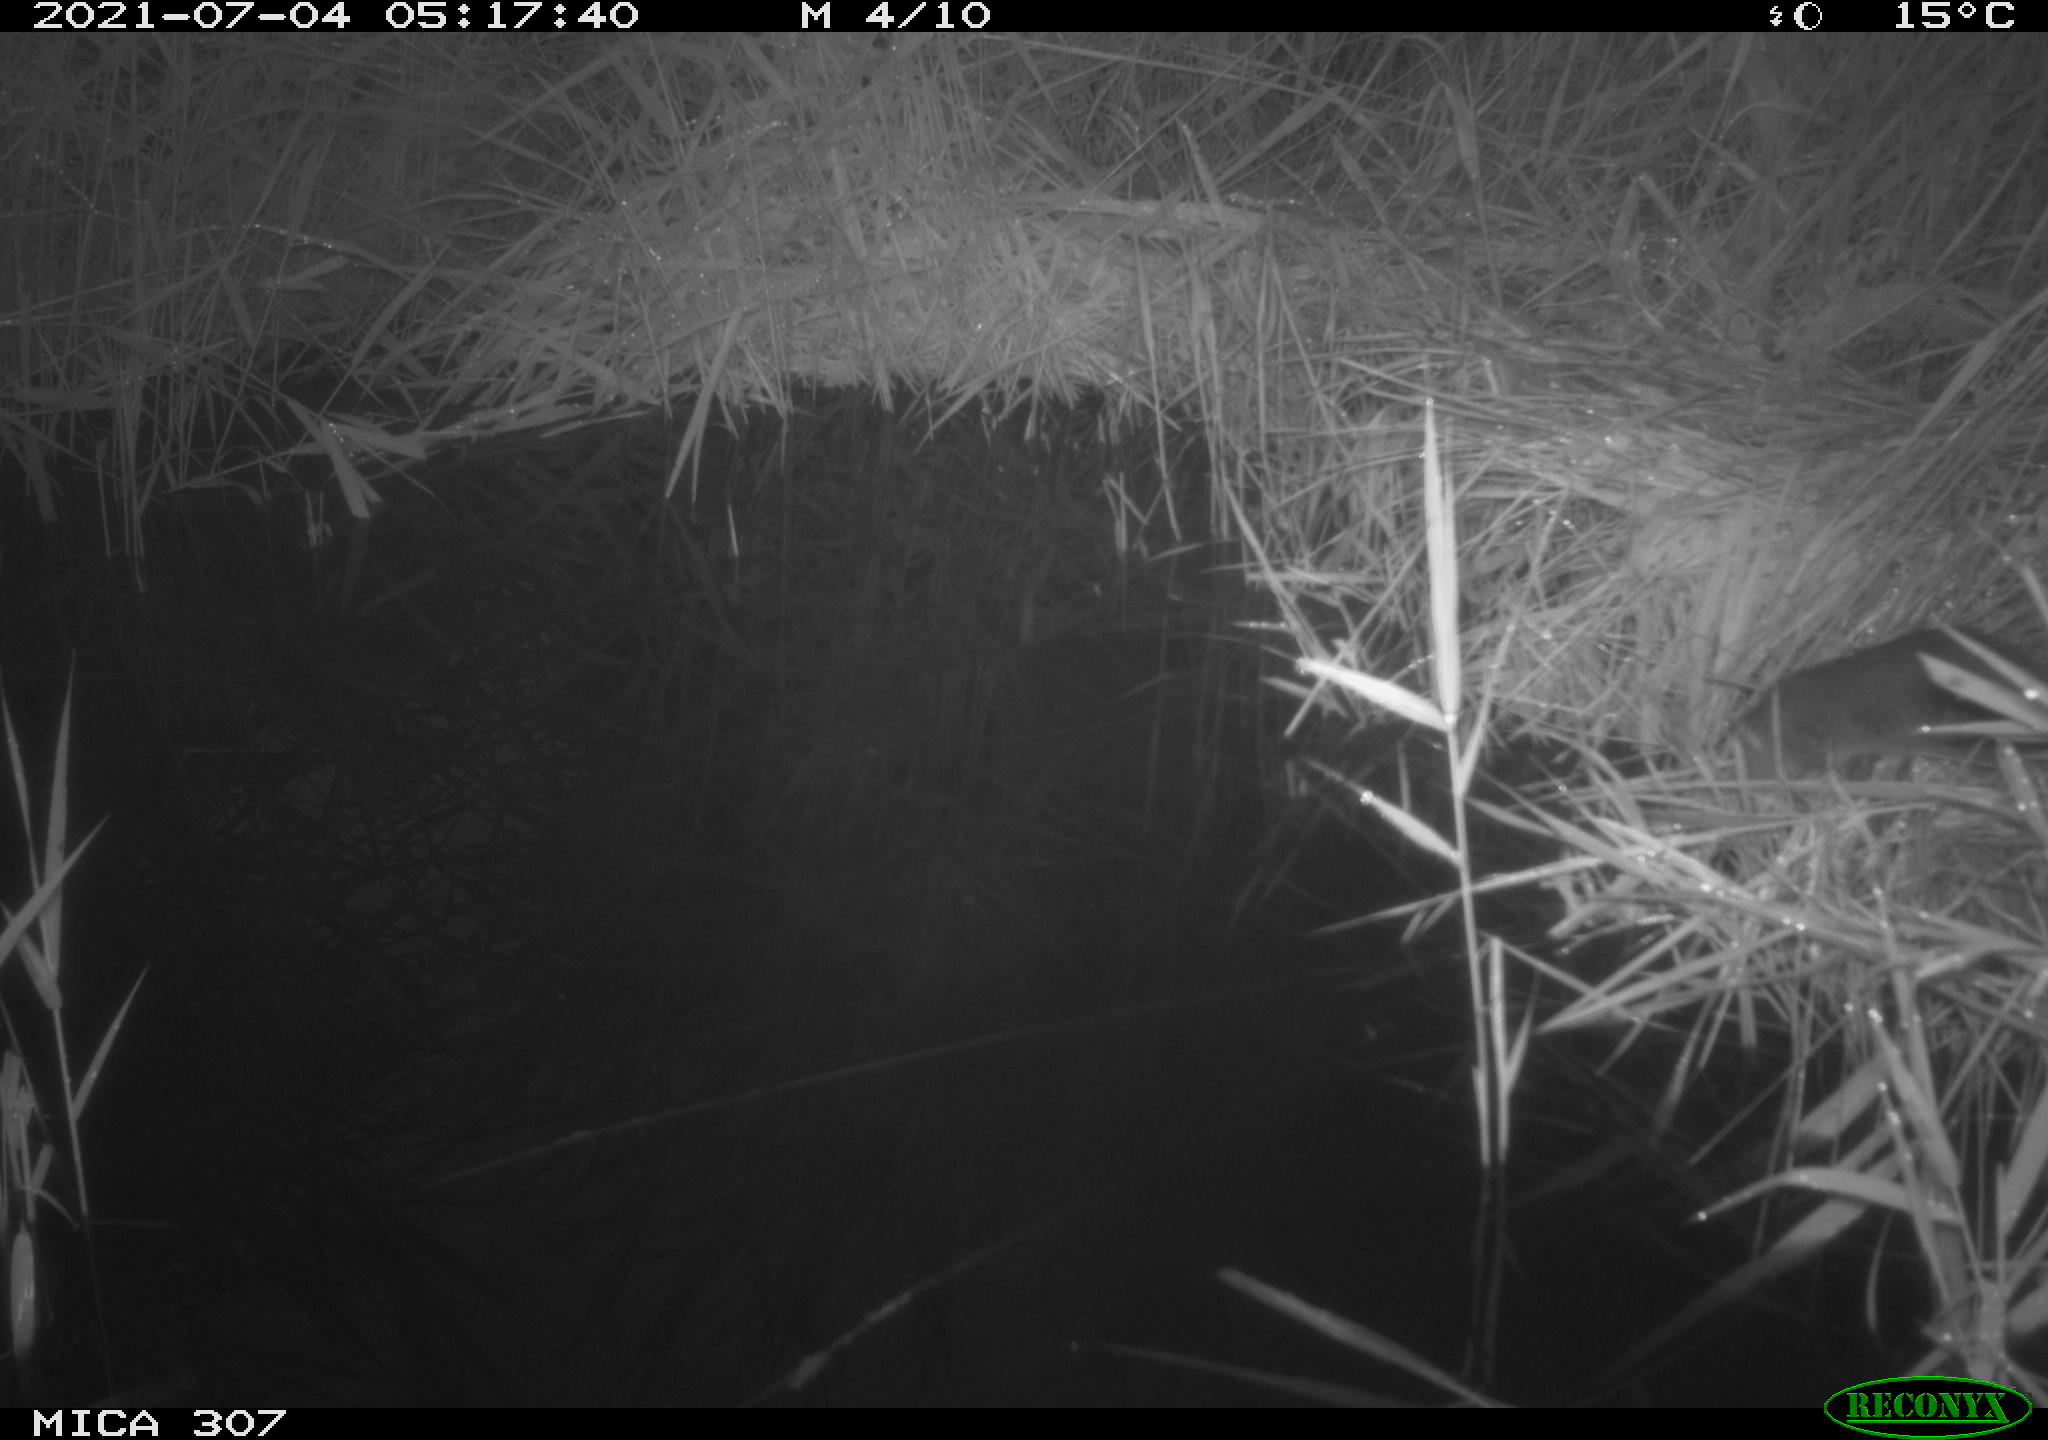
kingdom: Animalia
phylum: Chordata
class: Mammalia
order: Rodentia
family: Muridae
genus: Rattus
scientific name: Rattus norvegicus
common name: Brown rat
